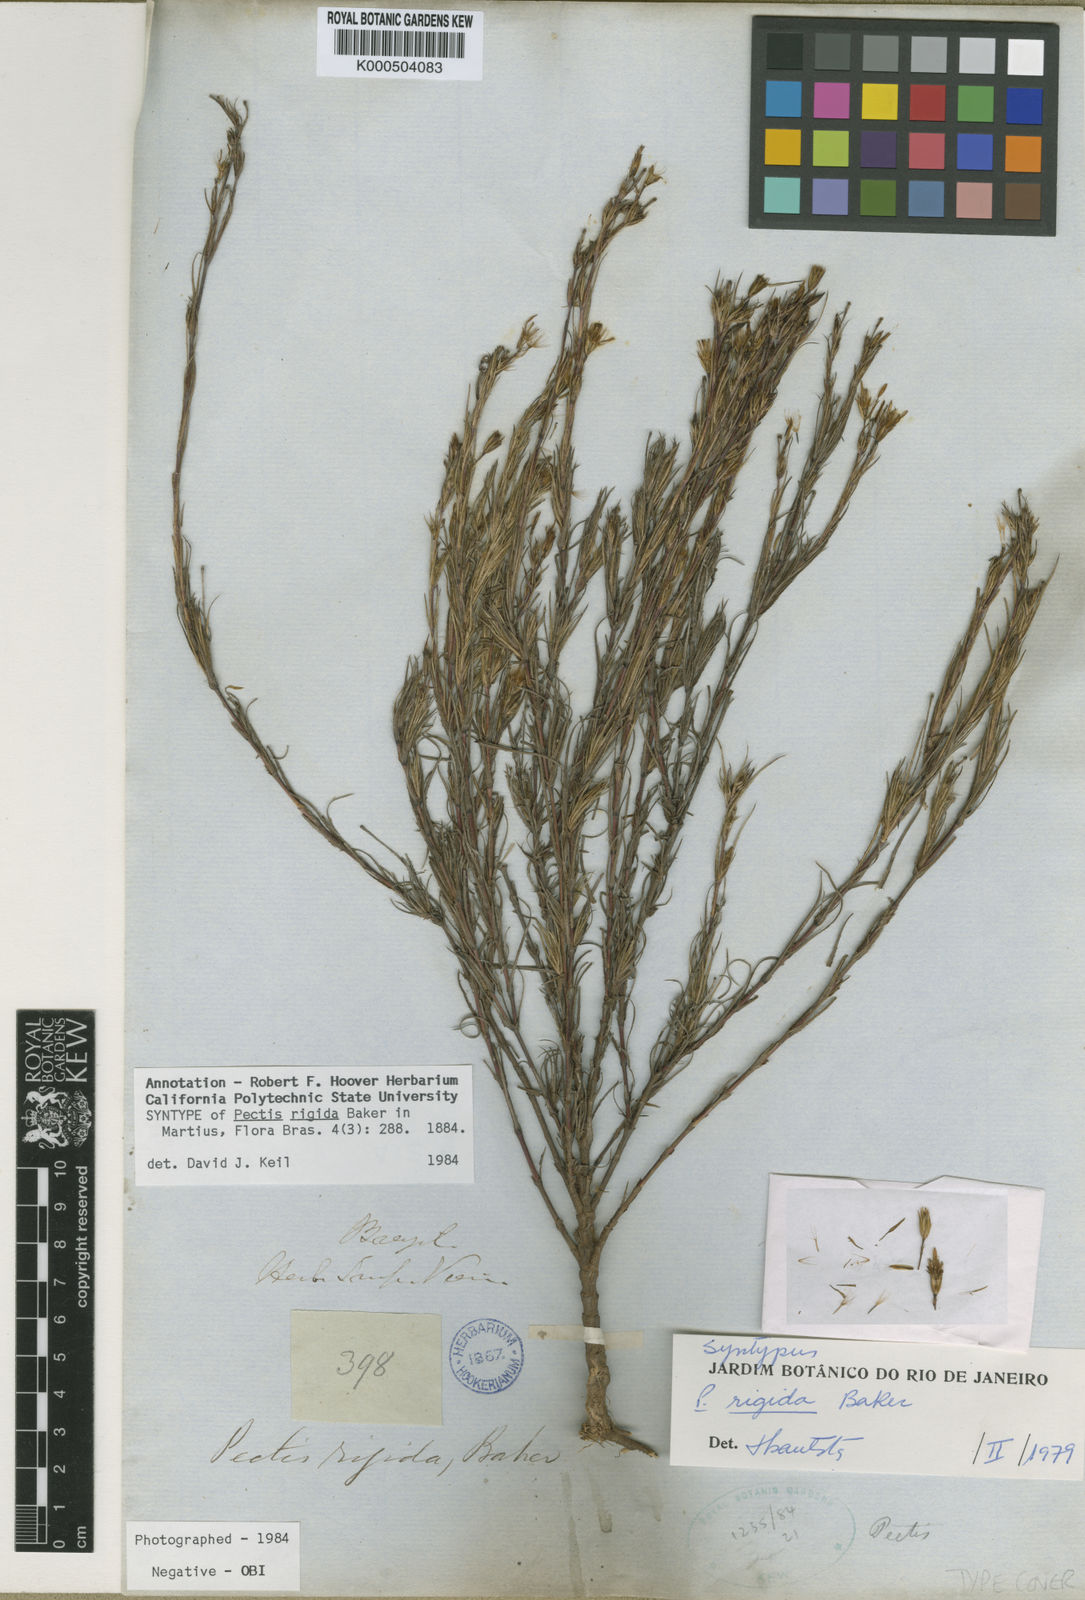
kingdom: Plantae
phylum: Tracheophyta
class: Magnoliopsida
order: Asterales
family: Asteraceae
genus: Pectis
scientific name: Pectis oligocephala
